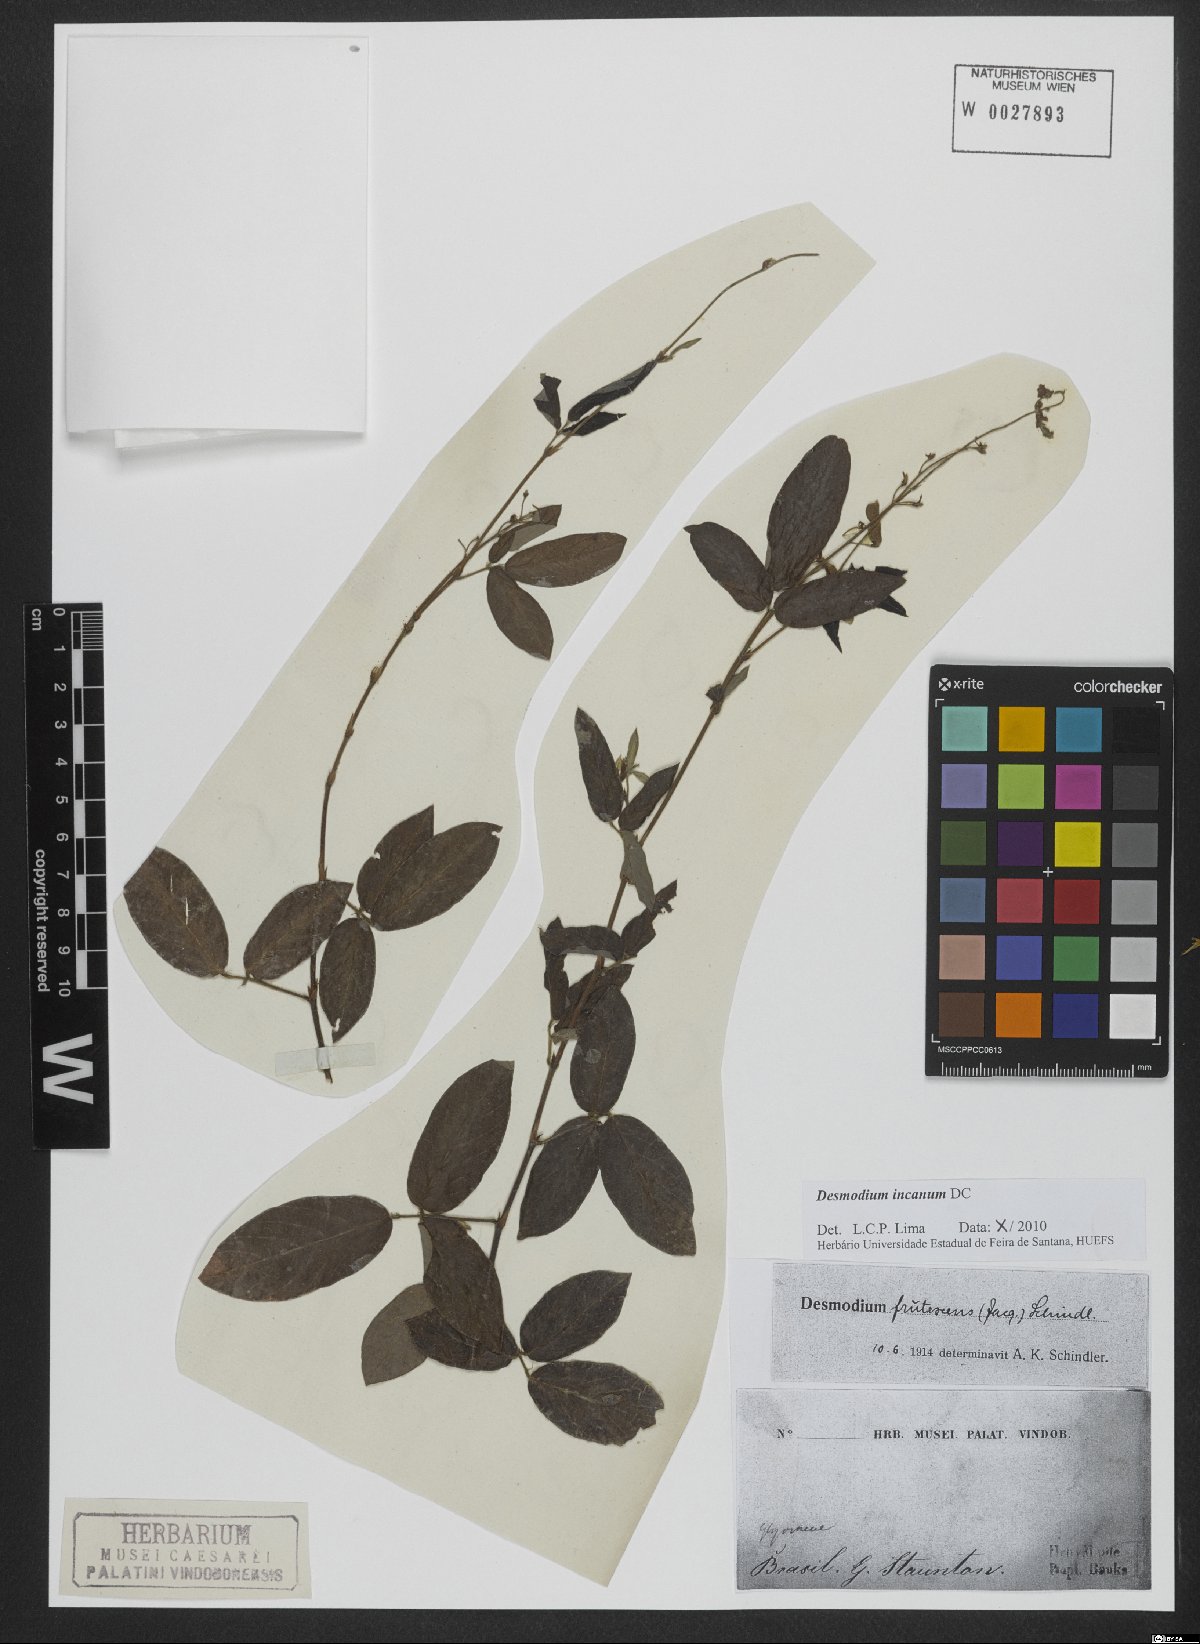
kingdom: Plantae
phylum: Tracheophyta
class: Magnoliopsida
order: Fabales
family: Fabaceae
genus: Desmodium
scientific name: Desmodium incanum
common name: Tickclover
